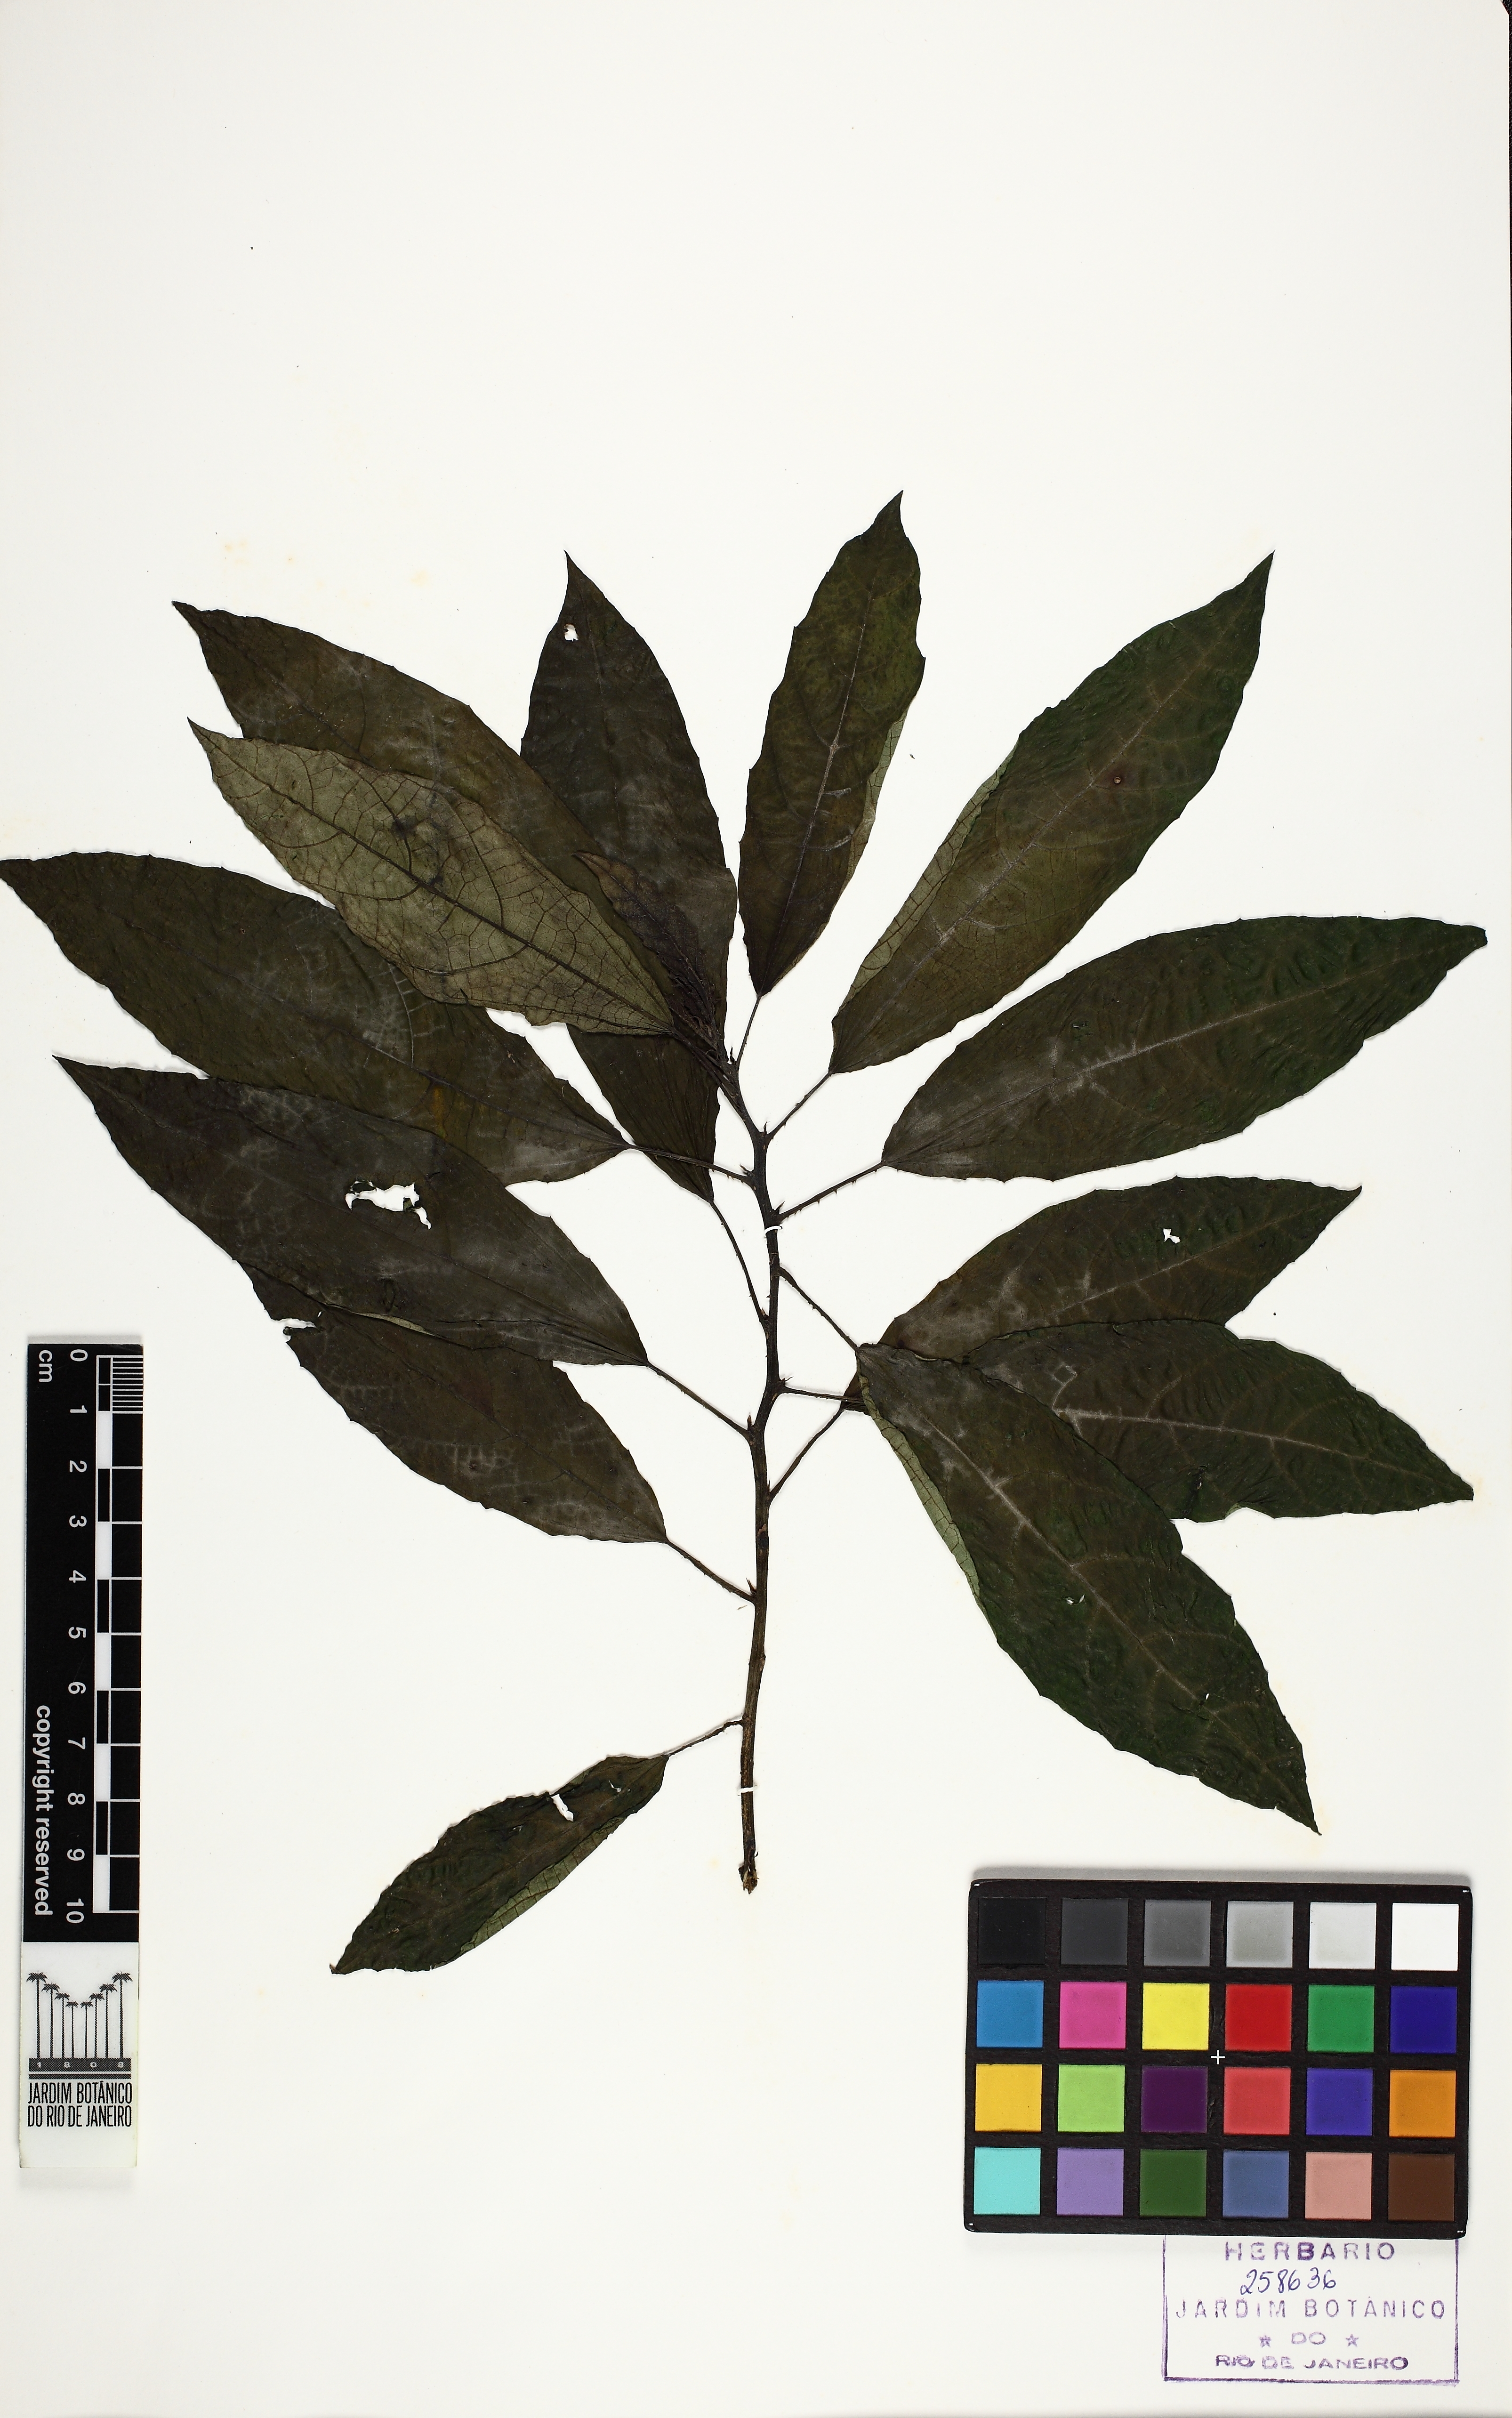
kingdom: Plantae
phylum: Tracheophyta
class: Magnoliopsida
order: Rosales
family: Urticaceae
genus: Urera
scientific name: Urera nitida
